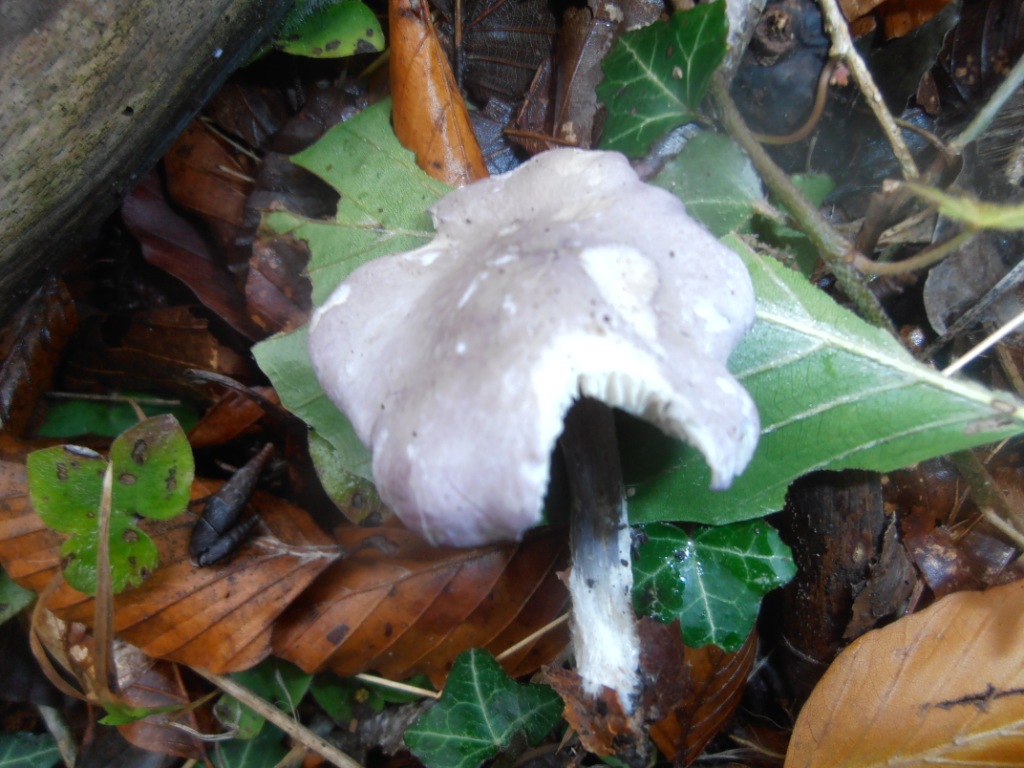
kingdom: Fungi
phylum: Basidiomycota
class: Agaricomycetes
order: Agaricales
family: Lyophyllaceae
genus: Calocybe
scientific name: Calocybe ionides
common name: violblå fagerhat
